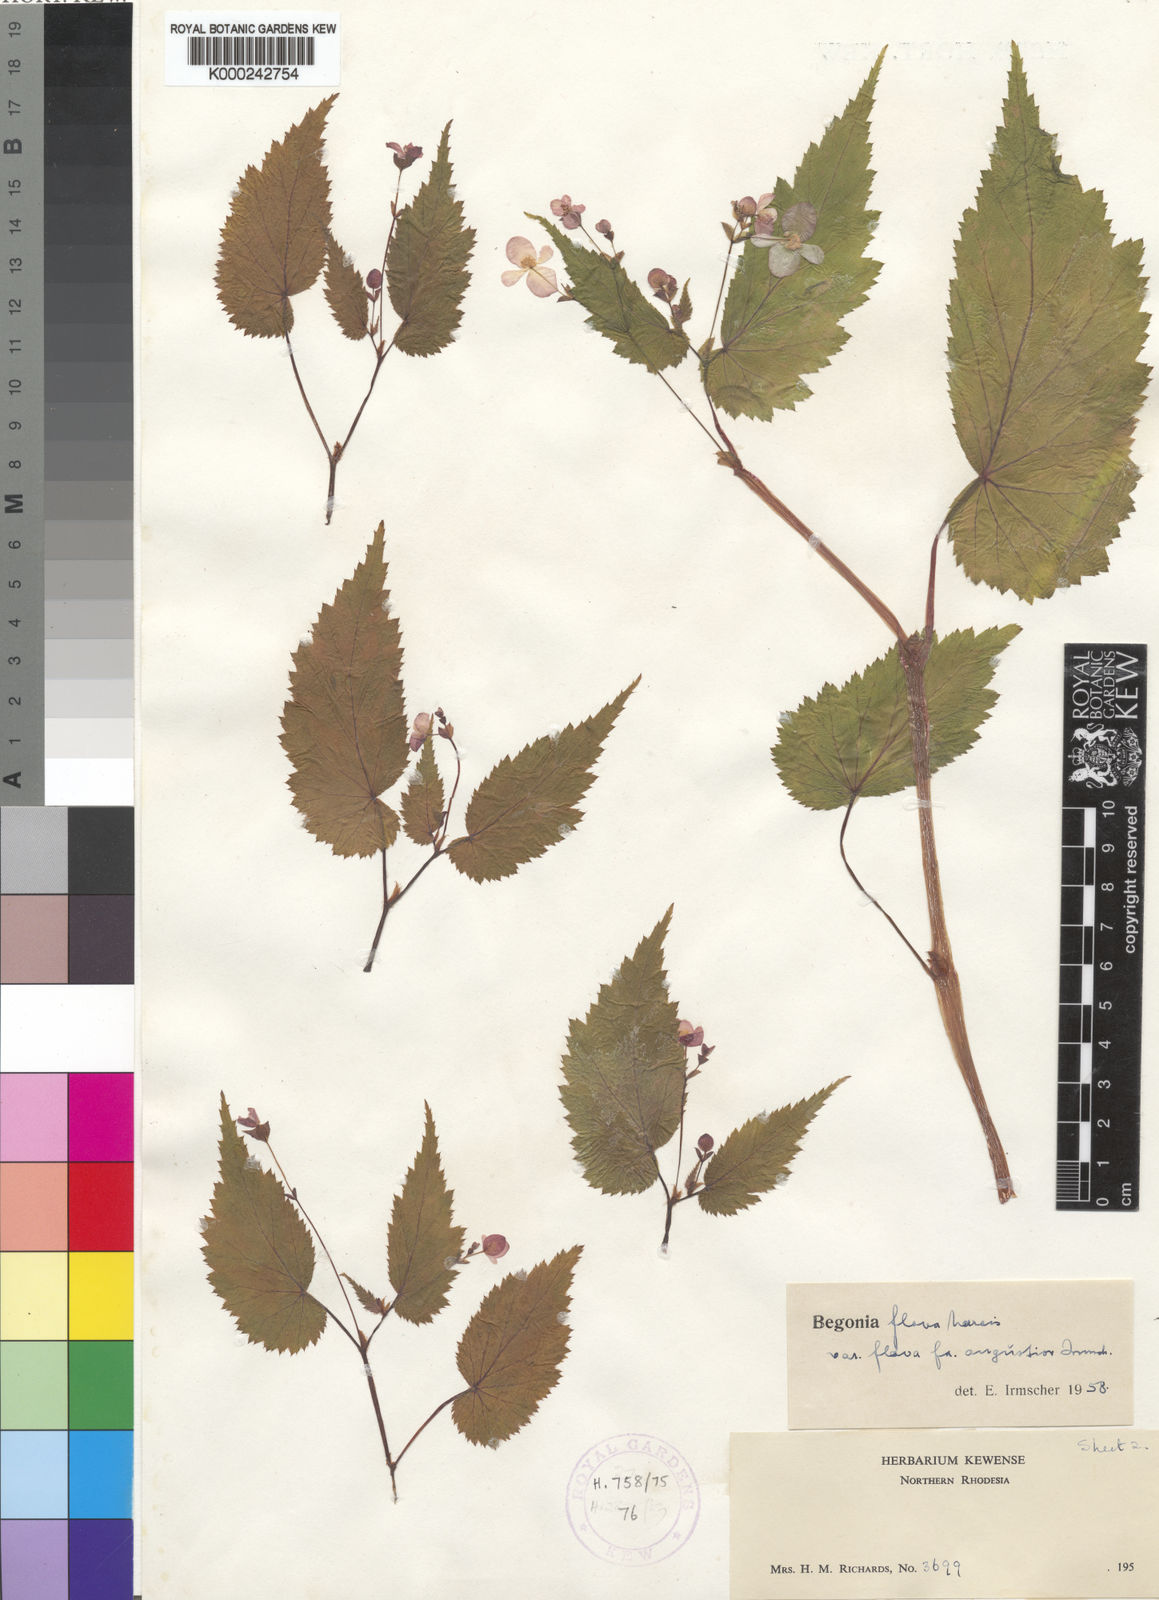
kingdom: Plantae
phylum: Tracheophyta
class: Magnoliopsida
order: Cucurbitales
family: Begoniaceae
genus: Begonia
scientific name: Begonia sutherlandii
